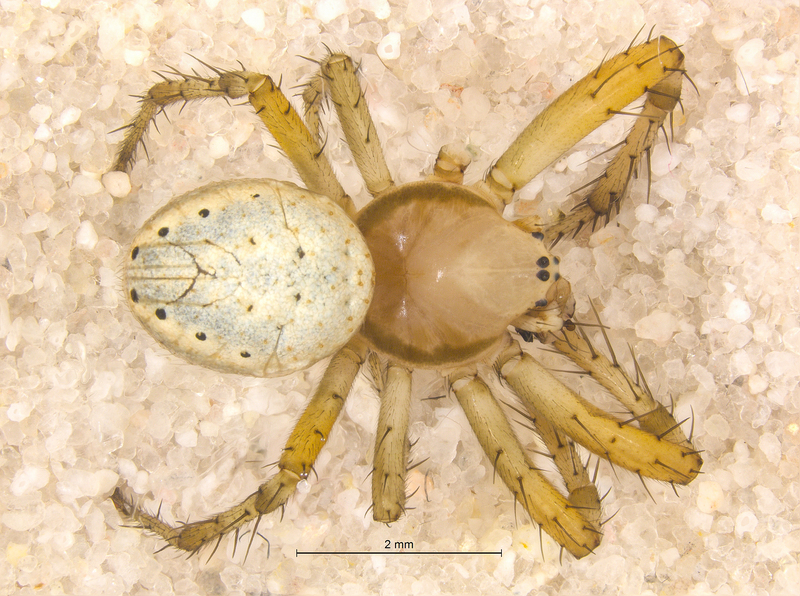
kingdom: Animalia
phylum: Arthropoda
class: Arachnida
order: Araneae
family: Araneidae
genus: Araniella
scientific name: Araniella cucurbitina
